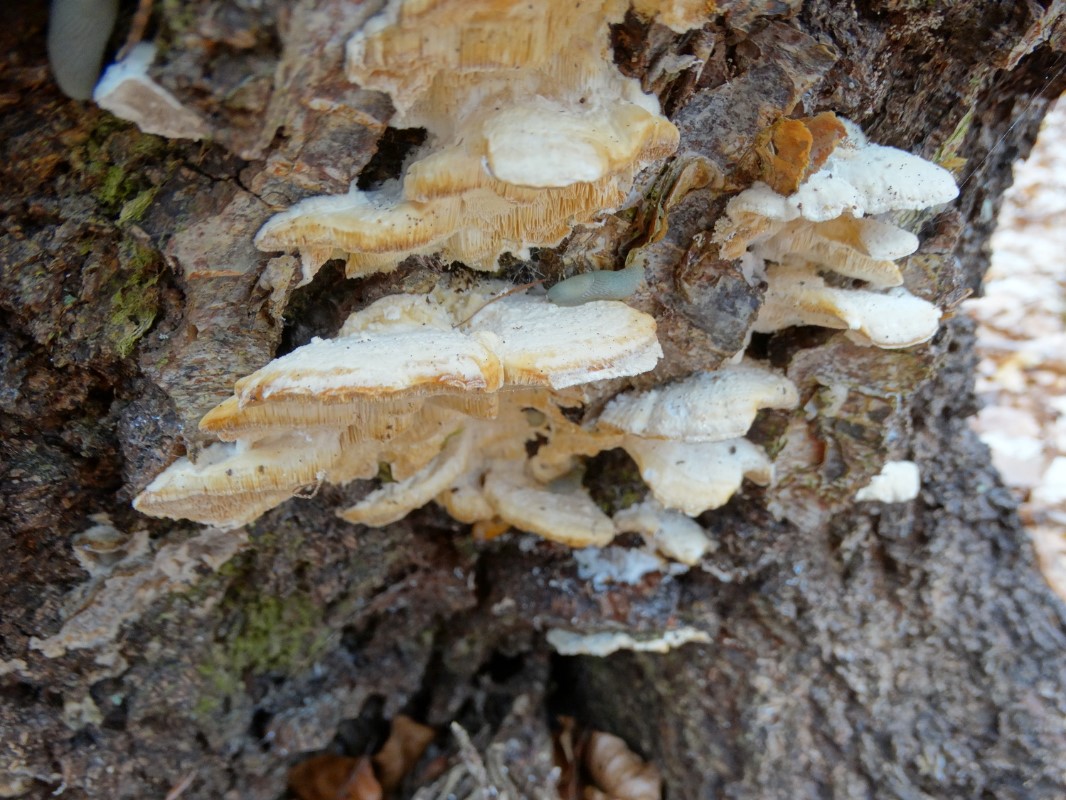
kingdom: Fungi
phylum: Basidiomycota
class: Agaricomycetes
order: Polyporales
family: Polyporaceae
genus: Trametes
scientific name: Trametes ochracea
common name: bæltet læderporesvamp
